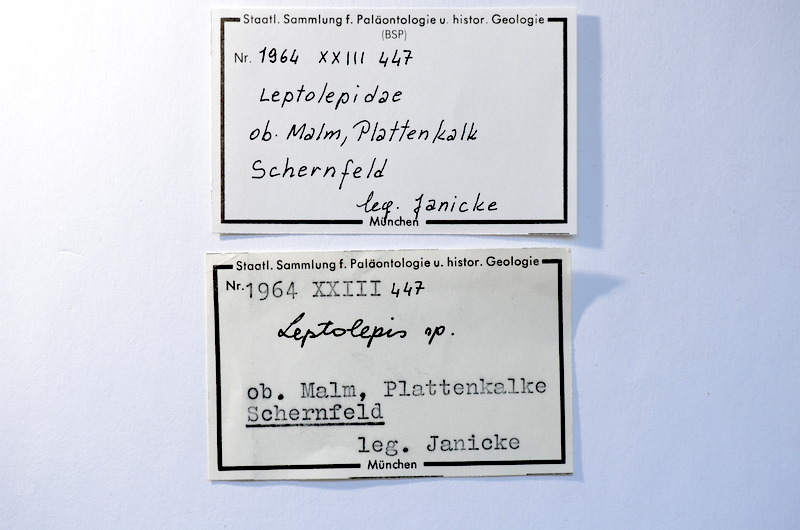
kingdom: Animalia
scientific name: Animalia
